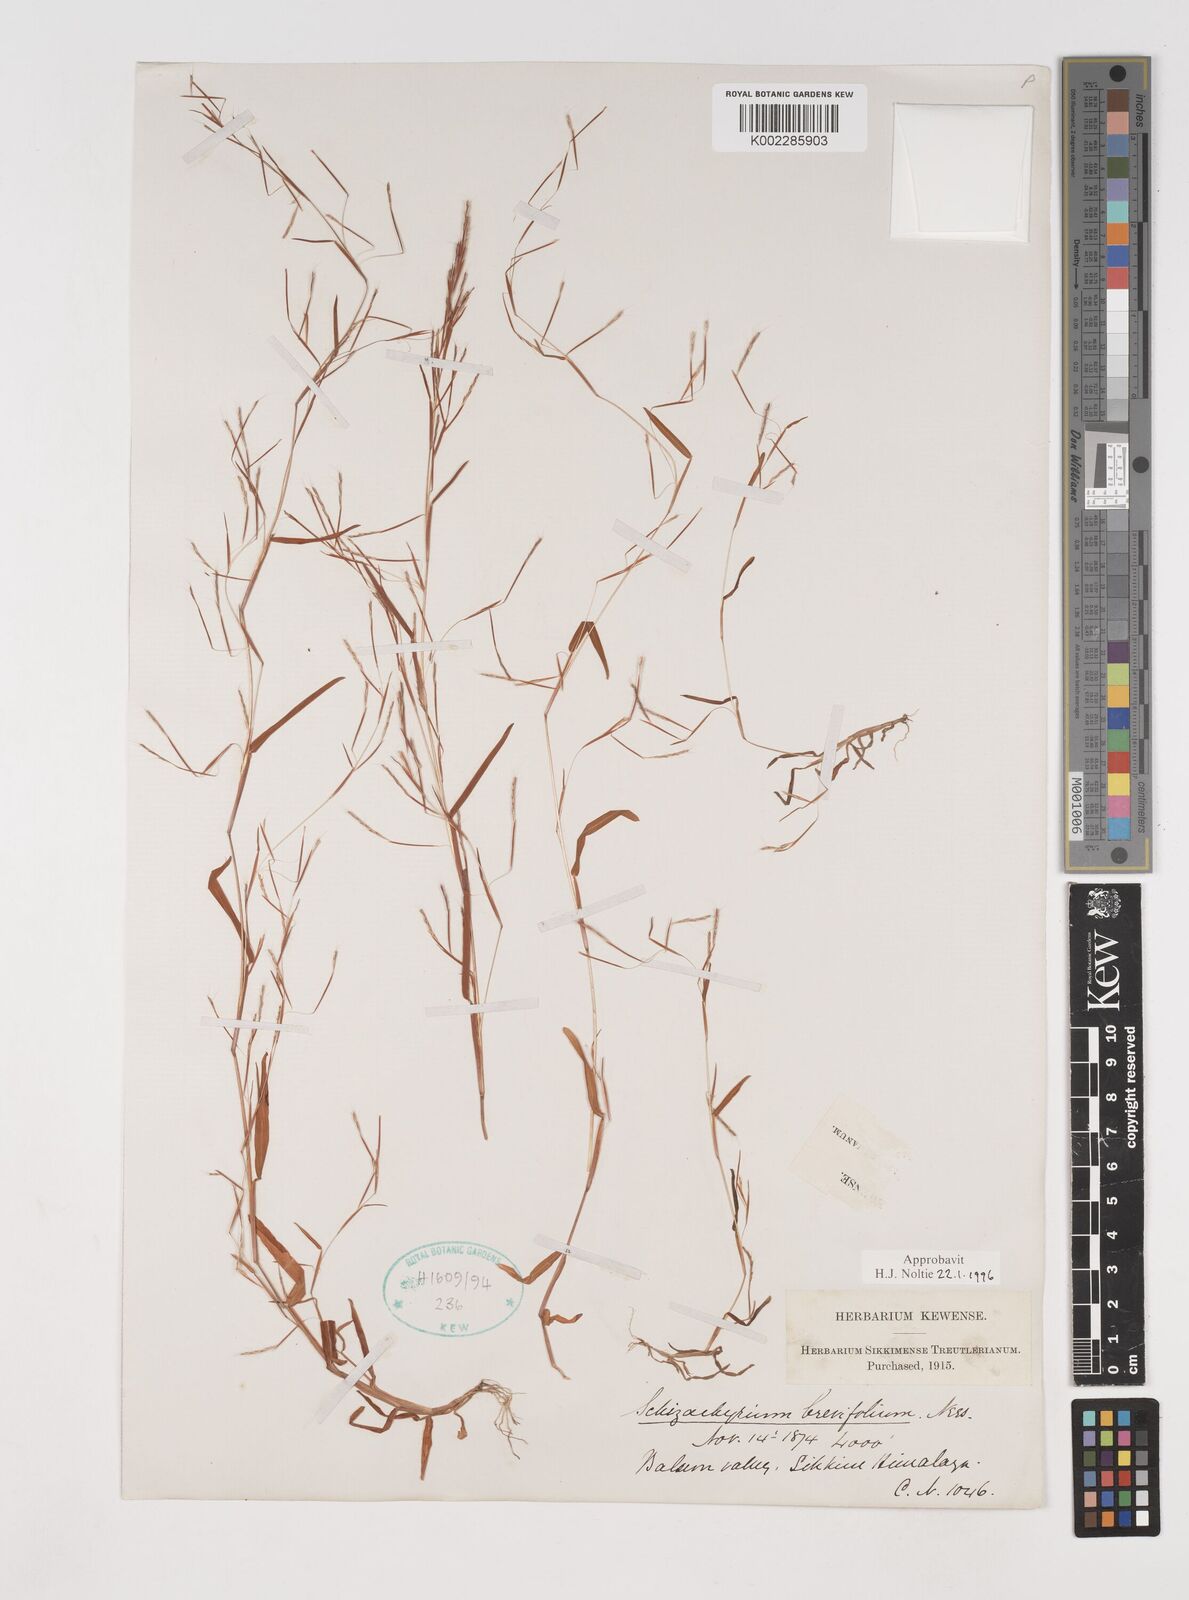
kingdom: Plantae
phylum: Tracheophyta
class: Liliopsida
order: Poales
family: Poaceae
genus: Schizachyrium
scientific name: Schizachyrium brevifolium
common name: Serillo dulce
